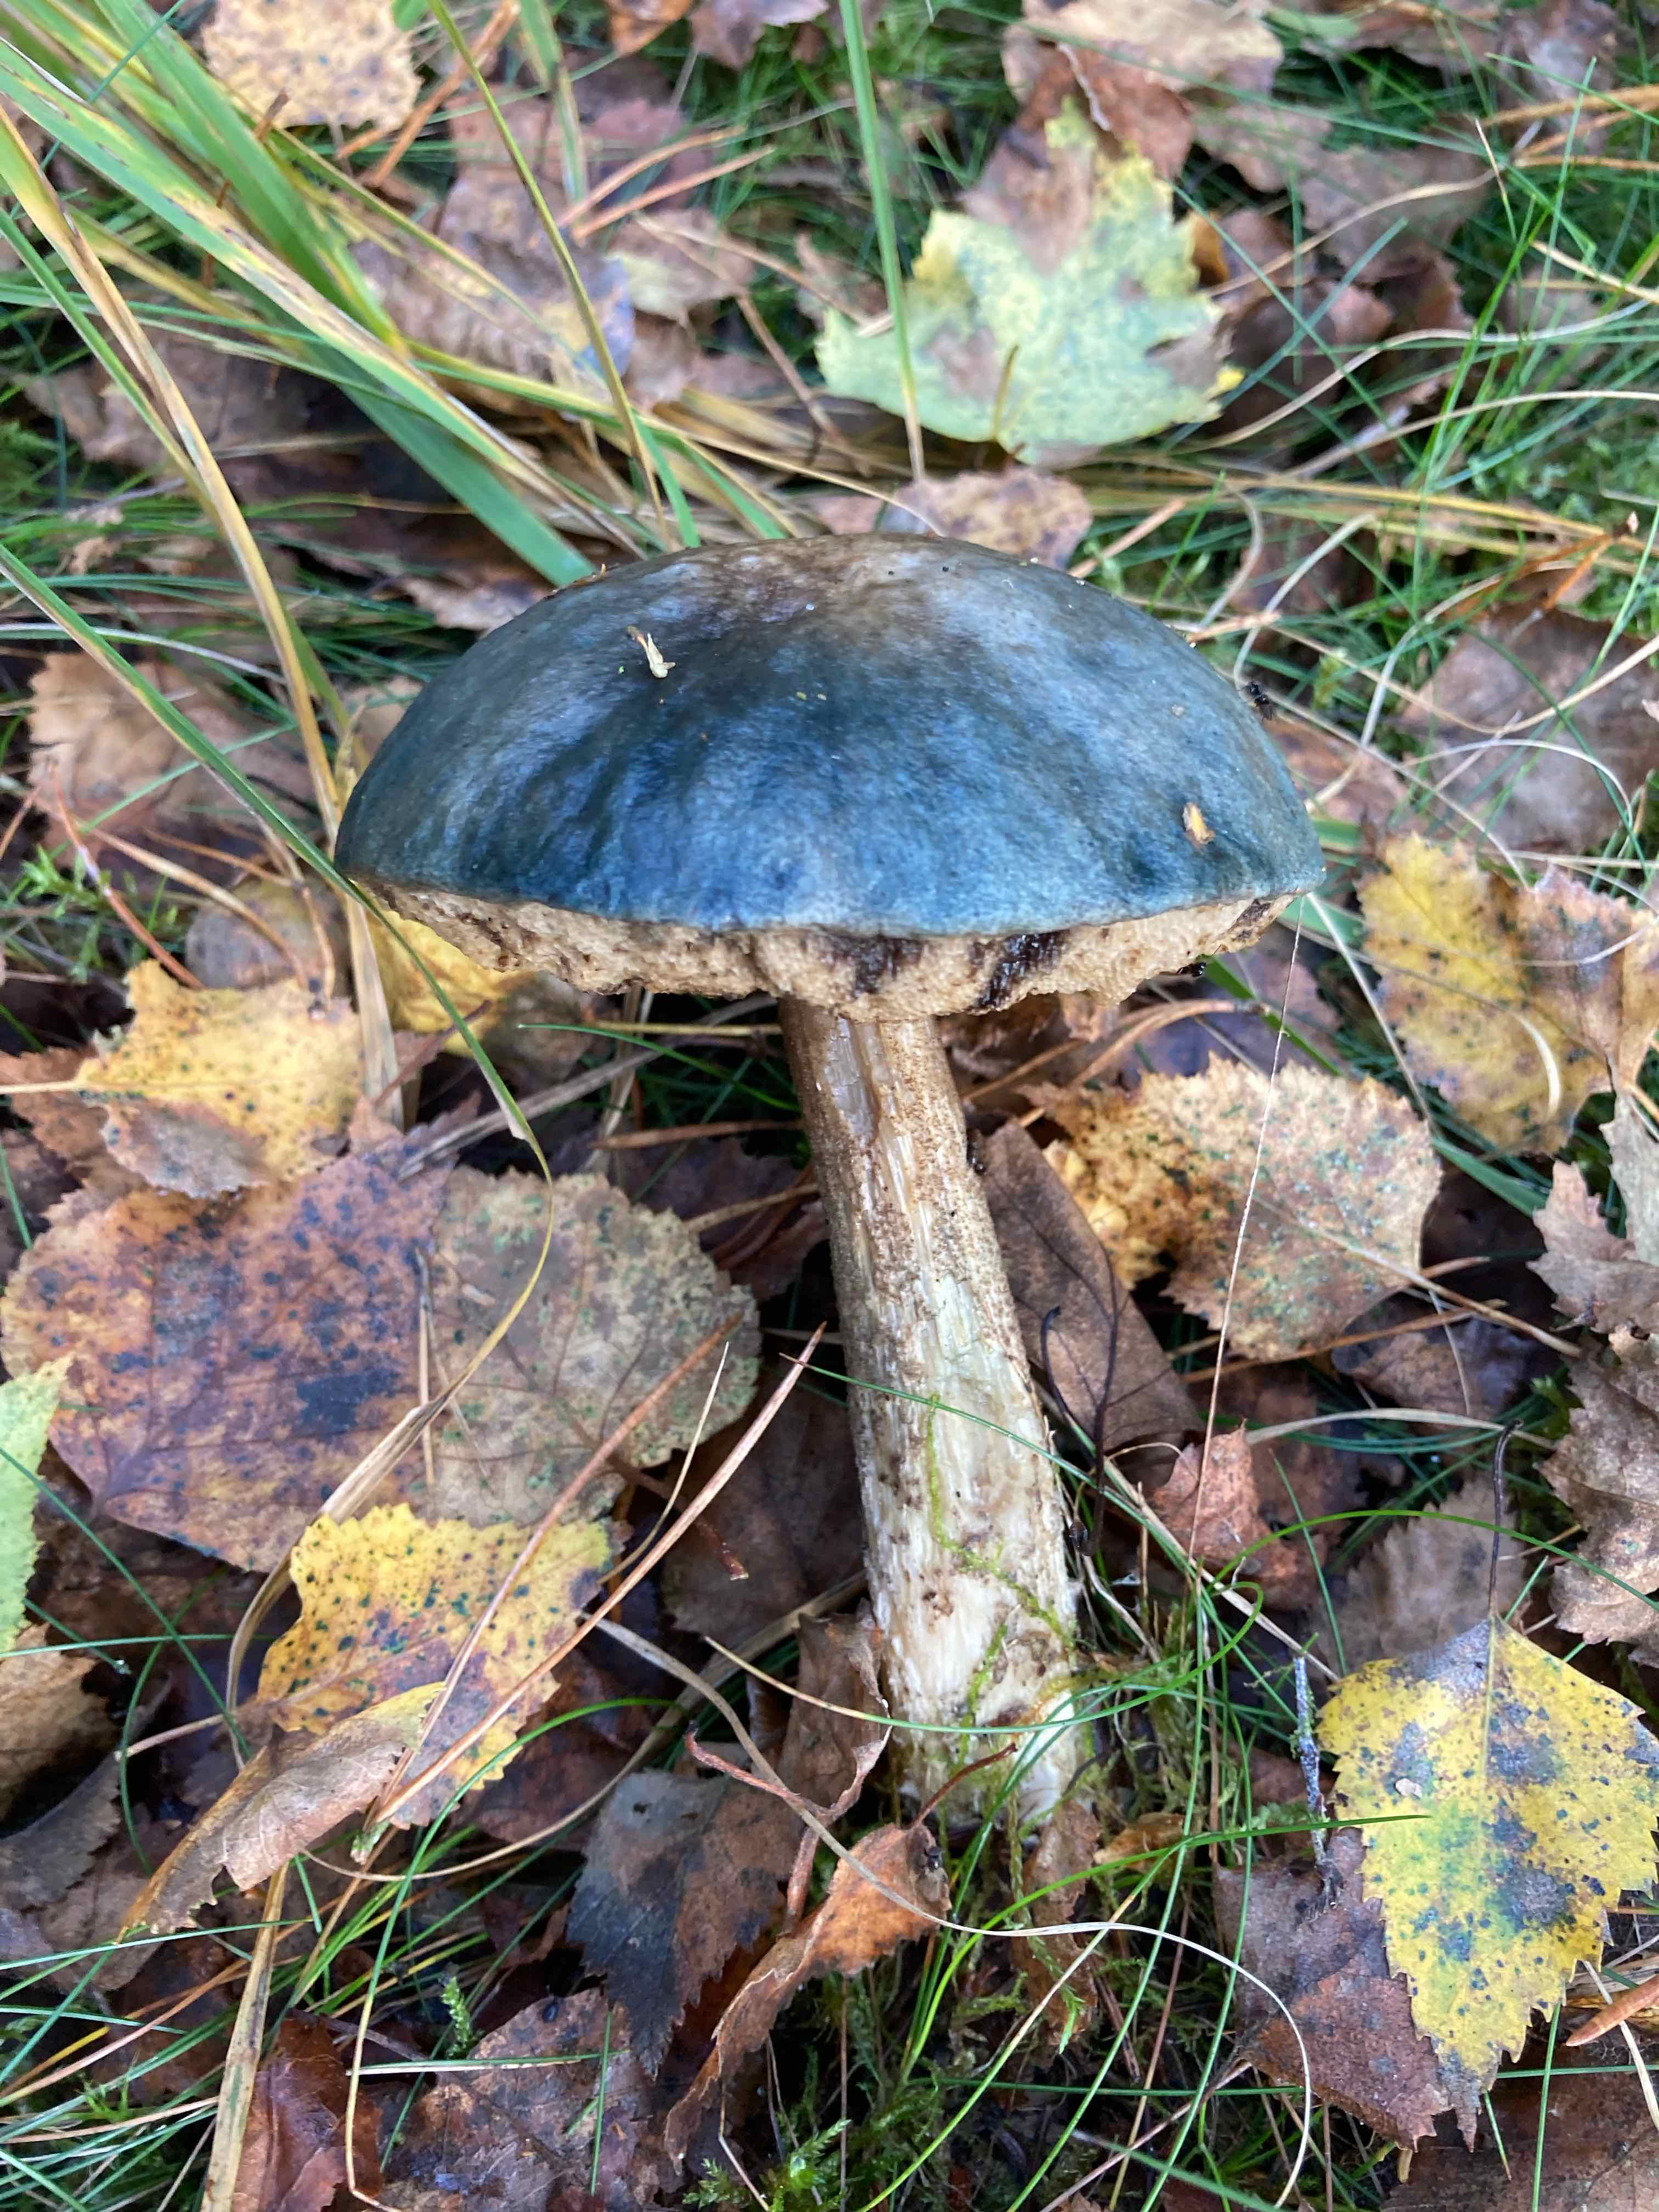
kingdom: Fungi
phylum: Basidiomycota
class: Agaricomycetes
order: Boletales
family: Boletaceae
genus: Leccinum
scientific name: Leccinum
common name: skælrørhat
